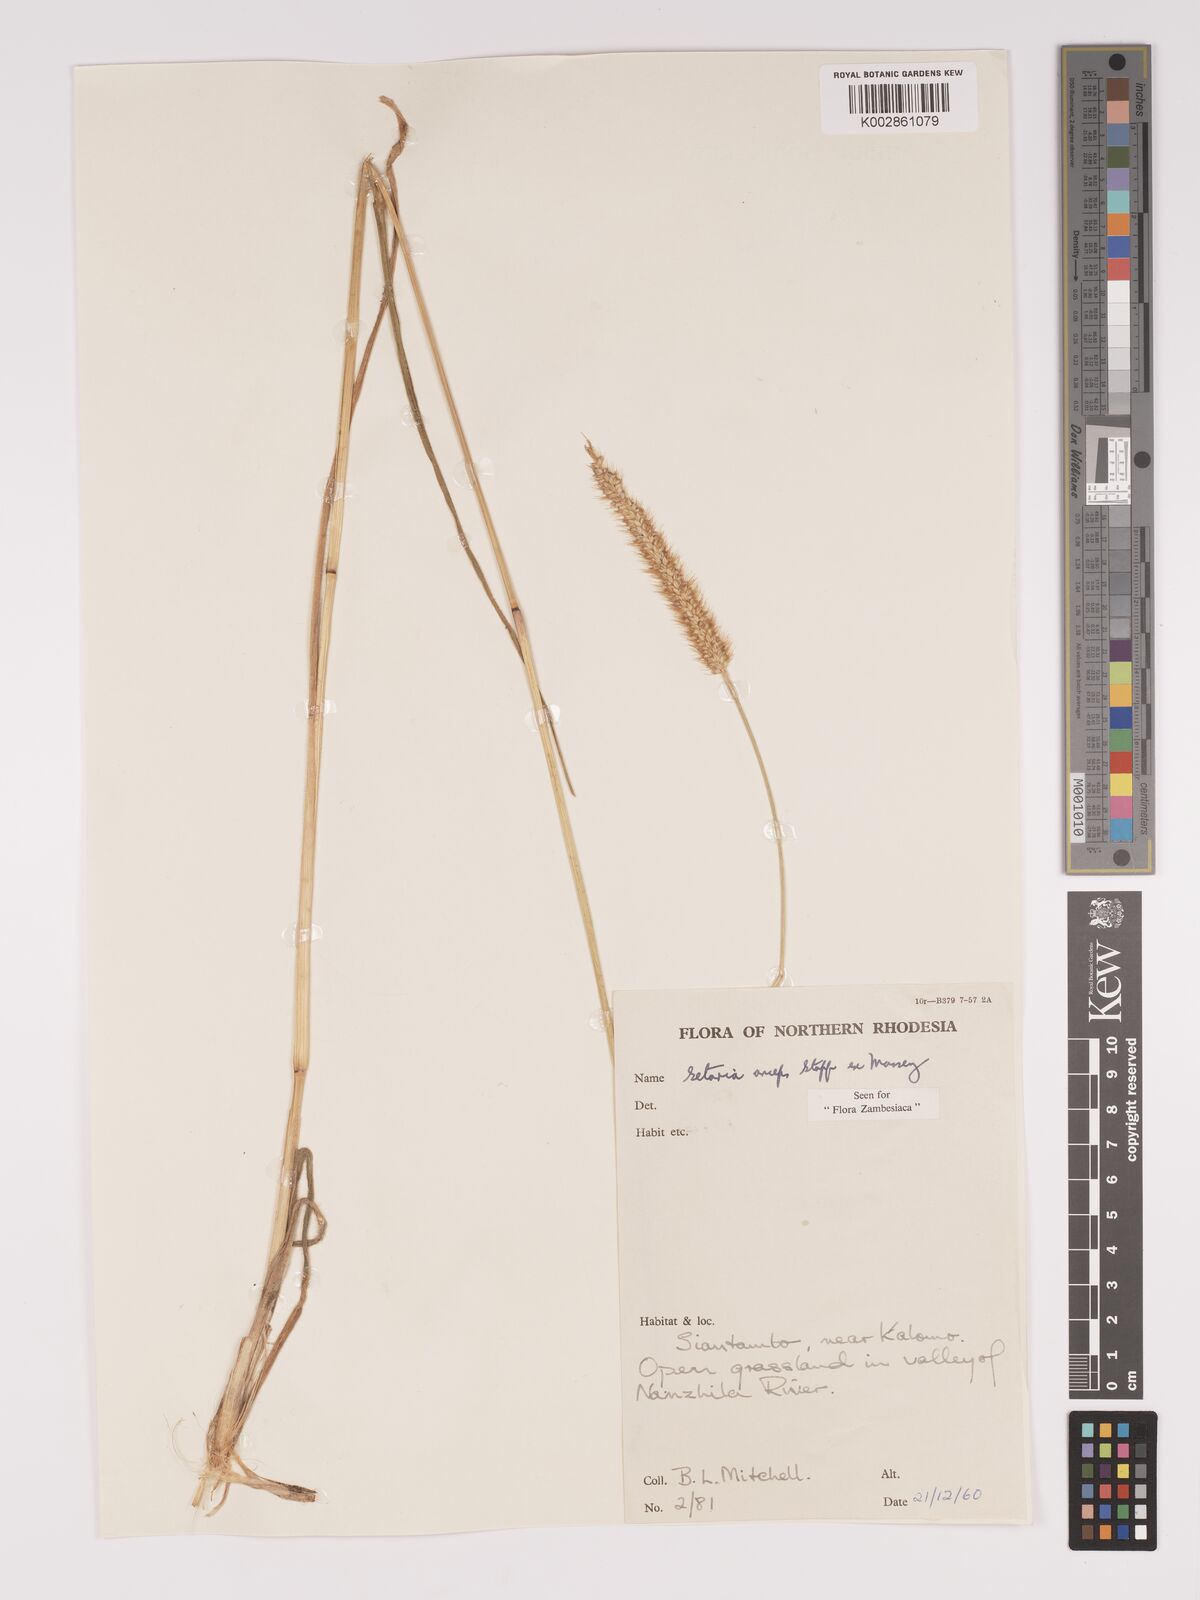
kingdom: Plantae
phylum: Tracheophyta
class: Liliopsida
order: Poales
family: Poaceae
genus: Setaria
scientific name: Setaria sphacelata
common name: African bristlegrass
